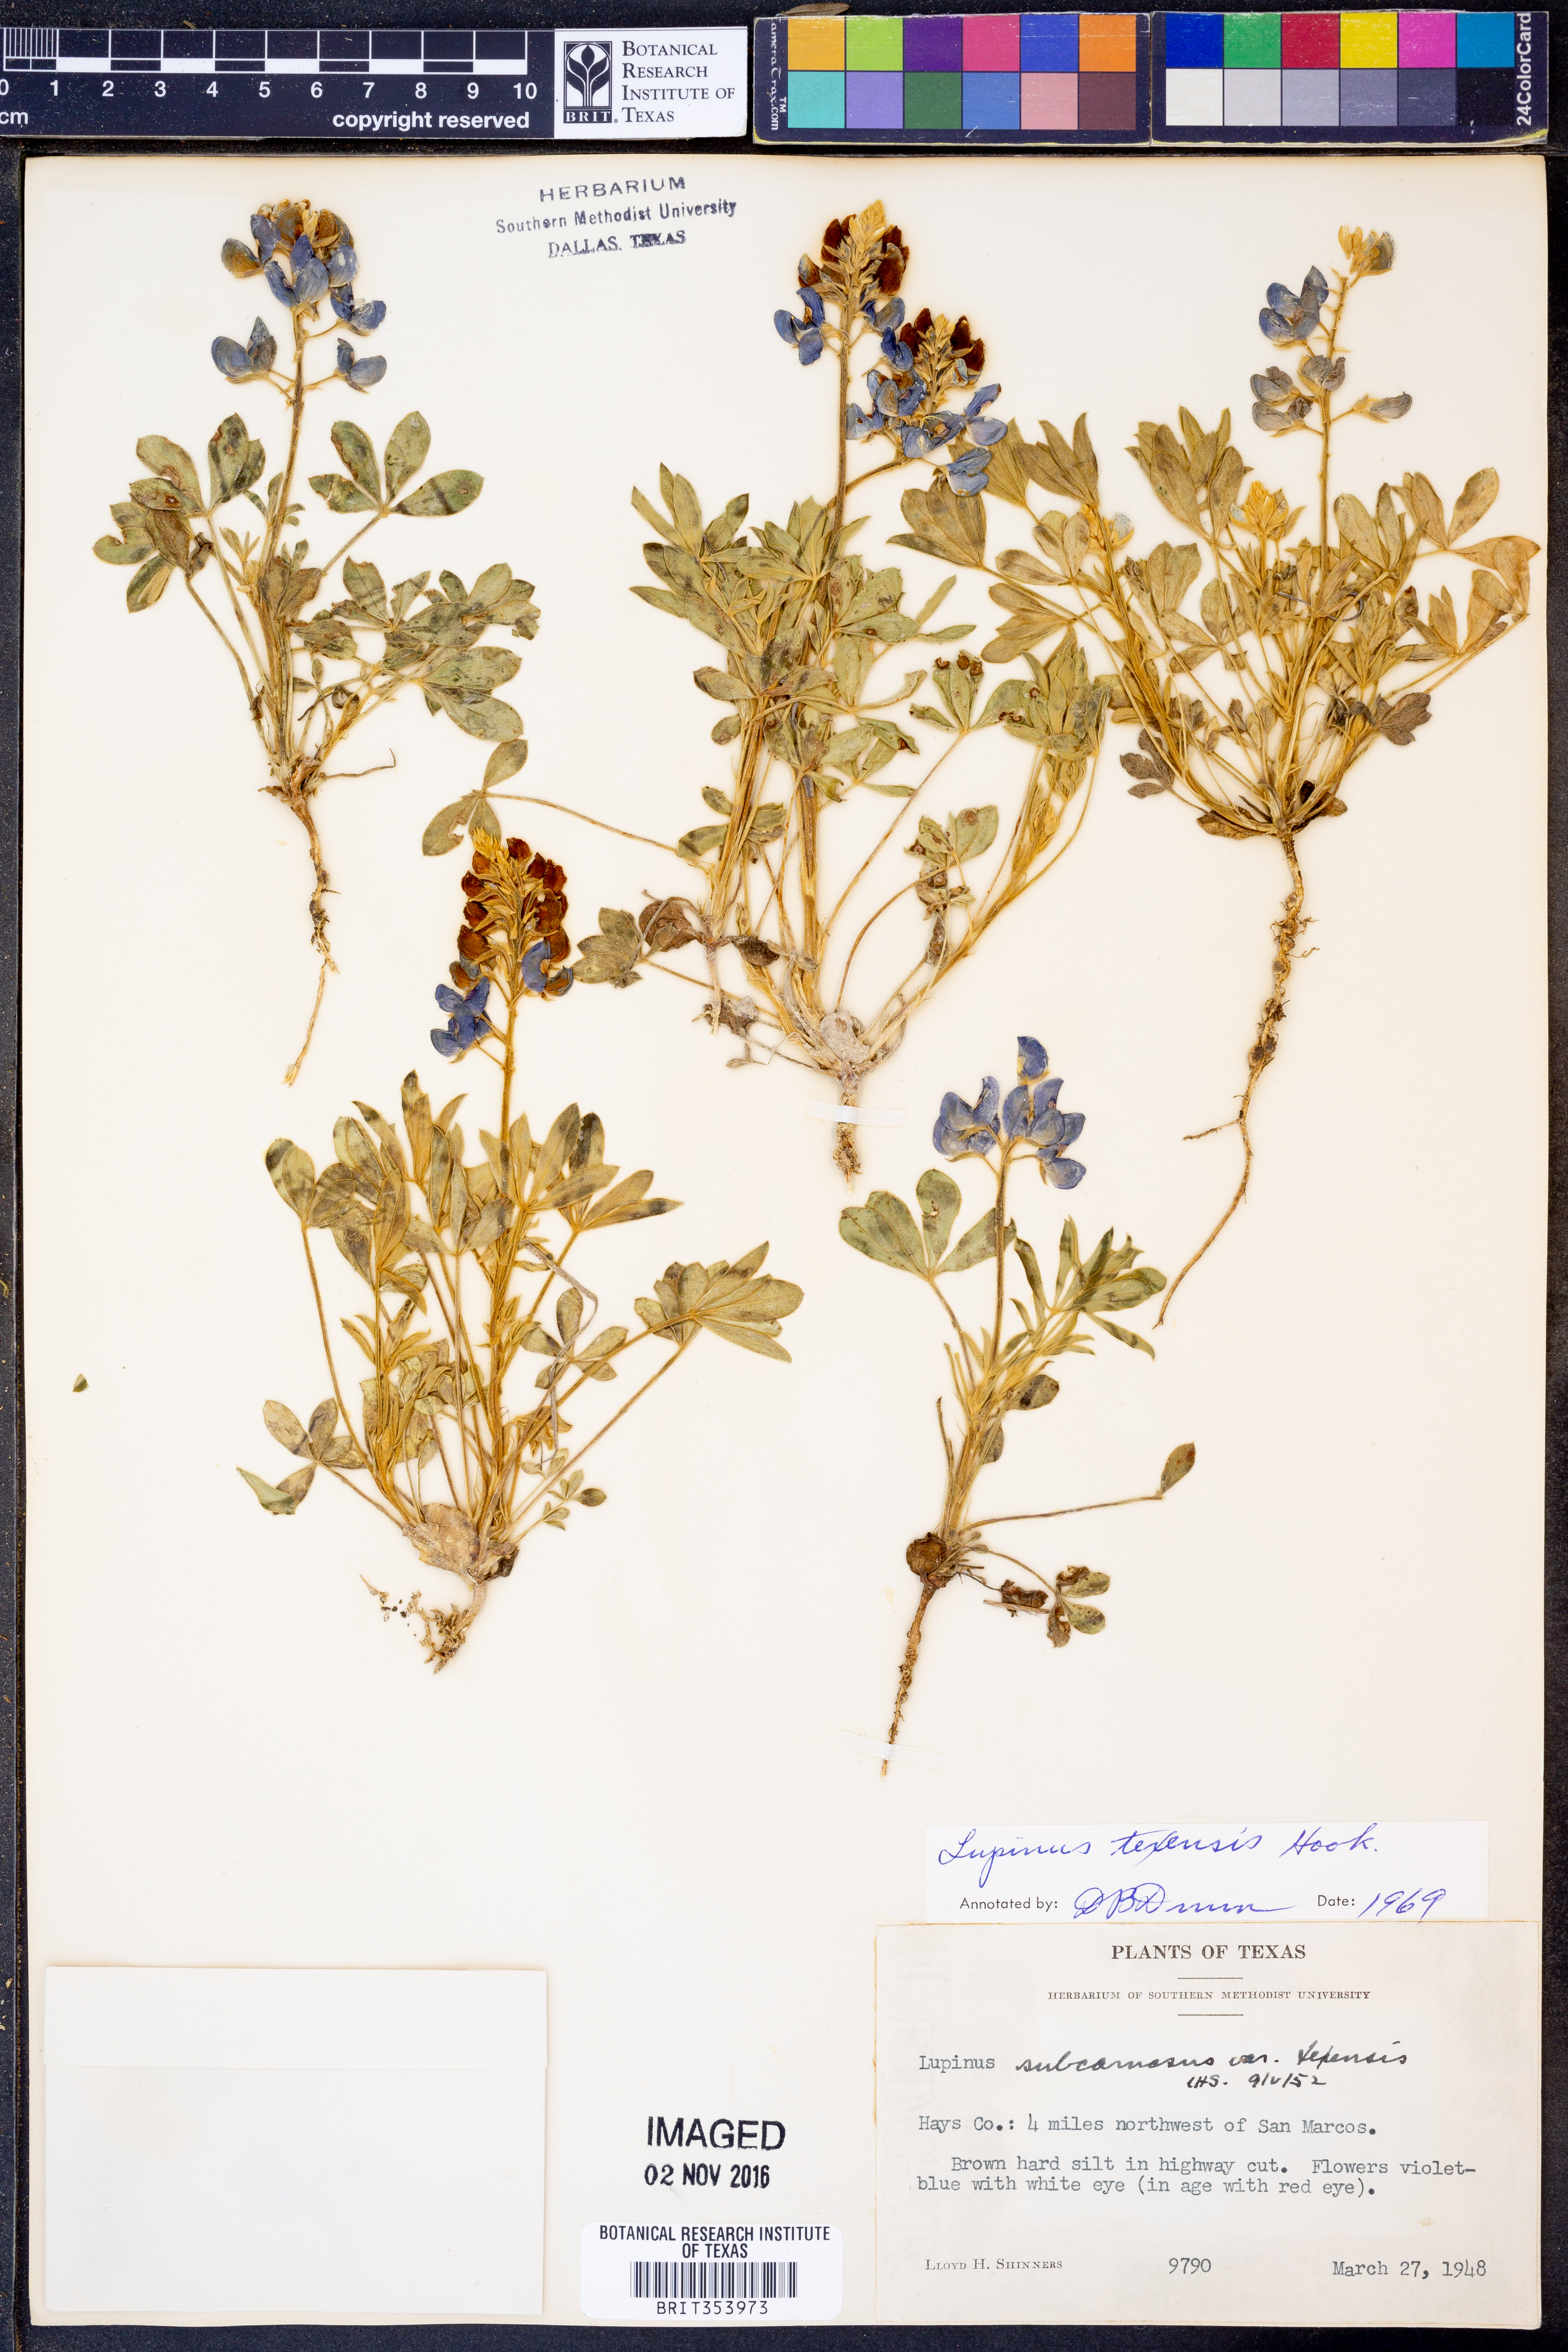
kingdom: Plantae
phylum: Tracheophyta
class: Magnoliopsida
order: Fabales
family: Fabaceae
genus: Lupinus
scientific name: Lupinus texensis
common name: Texas bluebonnet
